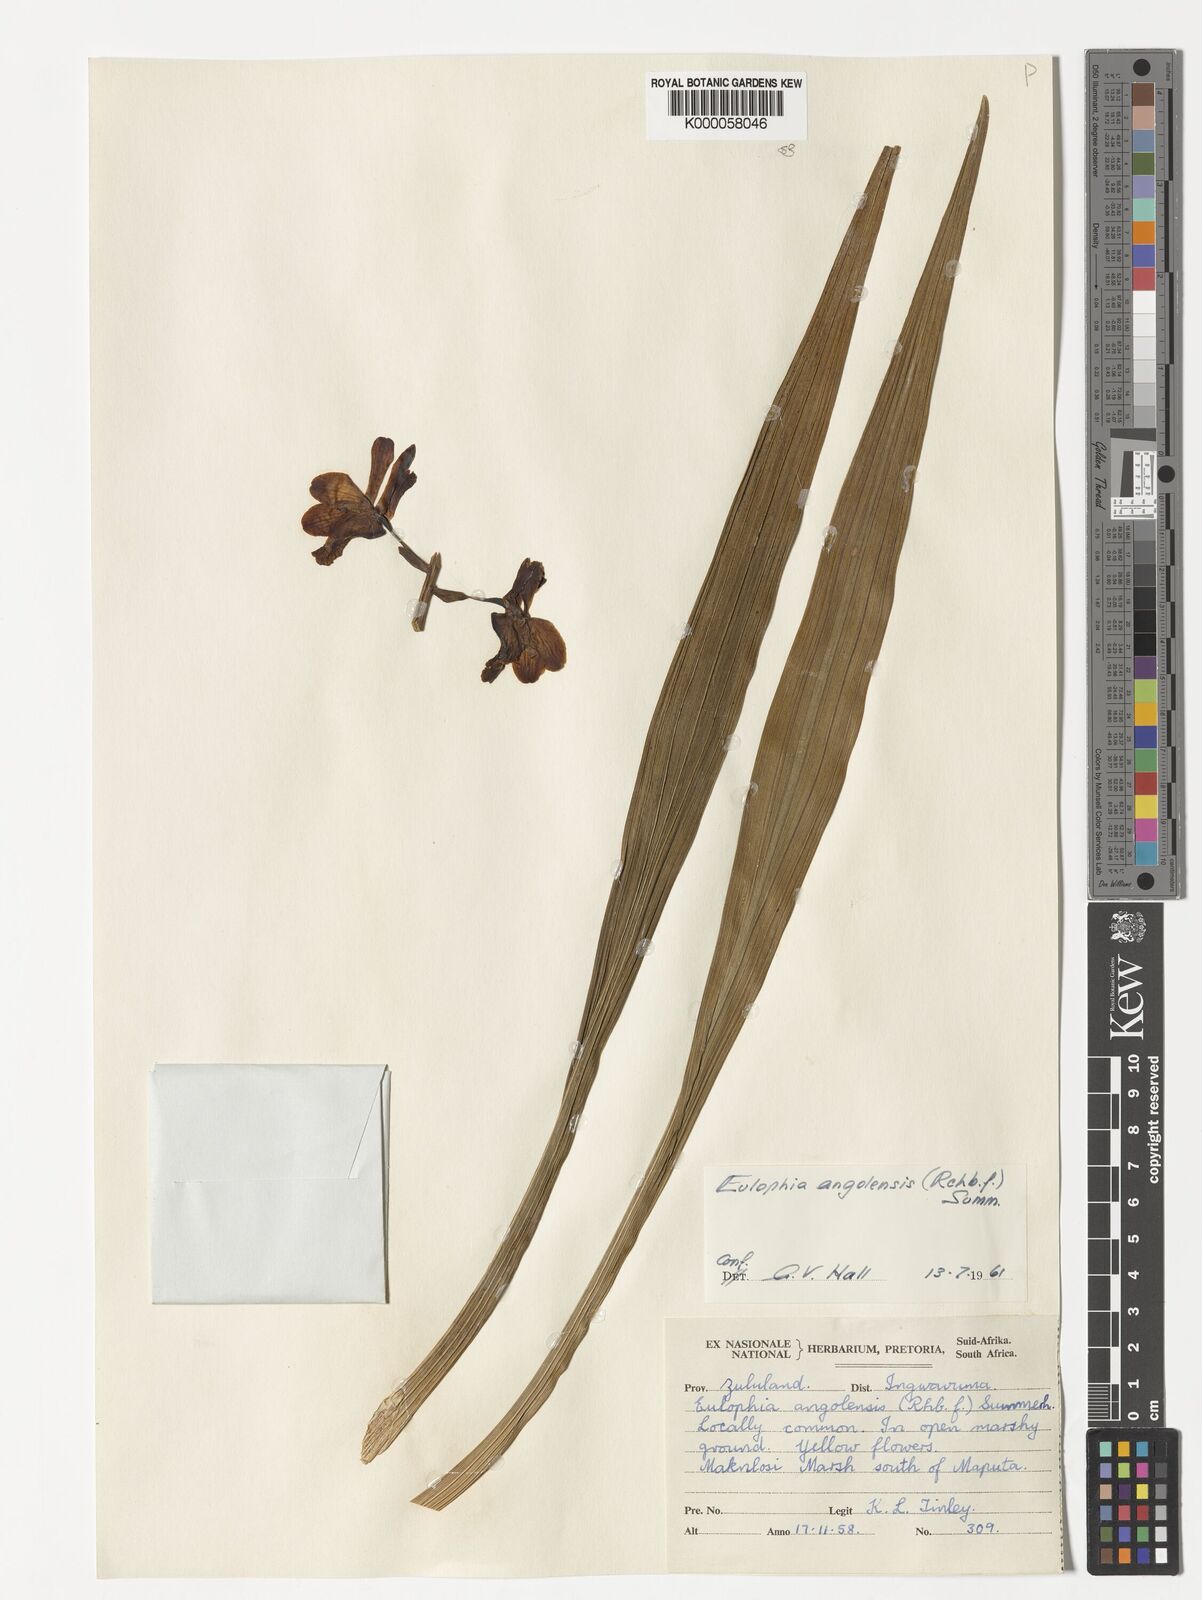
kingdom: Plantae
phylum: Tracheophyta
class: Liliopsida
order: Asparagales
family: Orchidaceae
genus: Eulophia
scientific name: Eulophia angolensis
